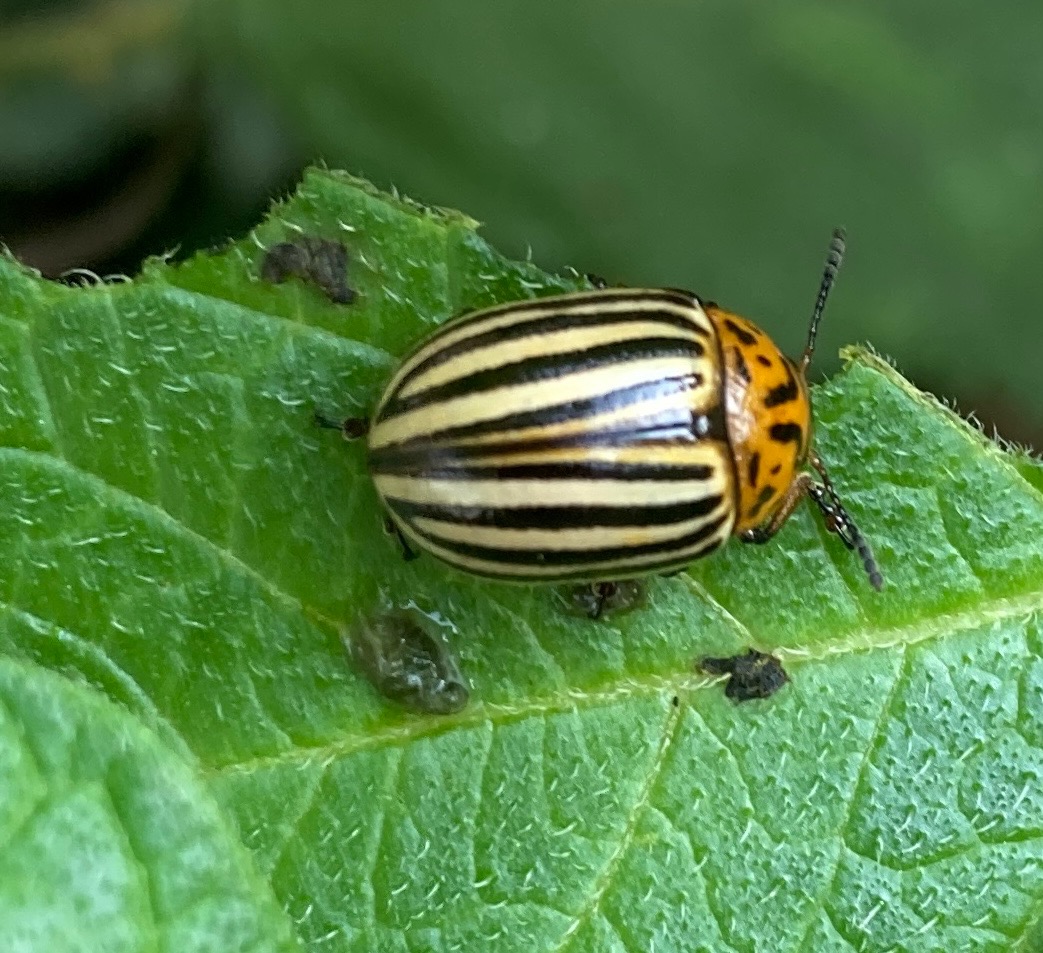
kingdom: Animalia
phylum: Arthropoda
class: Insecta
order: Coleoptera
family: Chrysomelidae
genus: Leptinotarsa
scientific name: Leptinotarsa decemlineata
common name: Coloradobille
